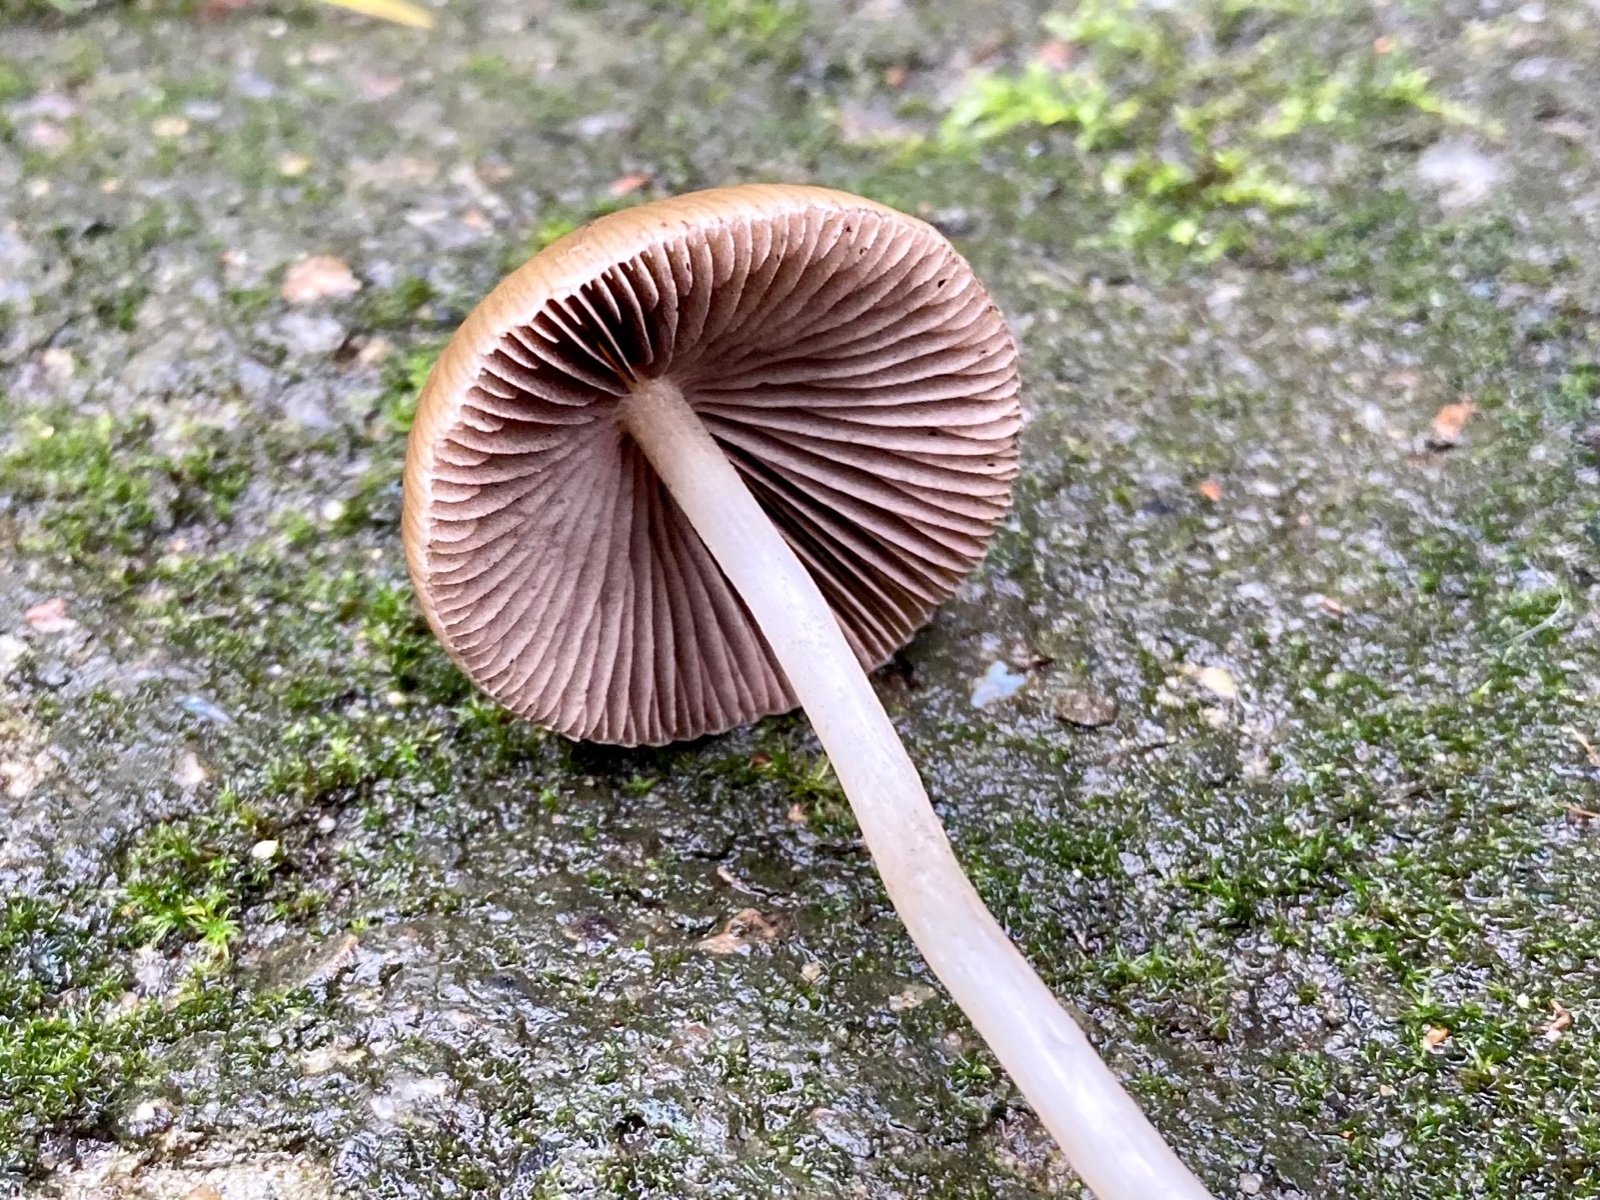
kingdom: Fungi
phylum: Basidiomycota
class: Agaricomycetes
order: Agaricales
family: Psathyrellaceae
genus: Psathyrella
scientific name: Psathyrella
